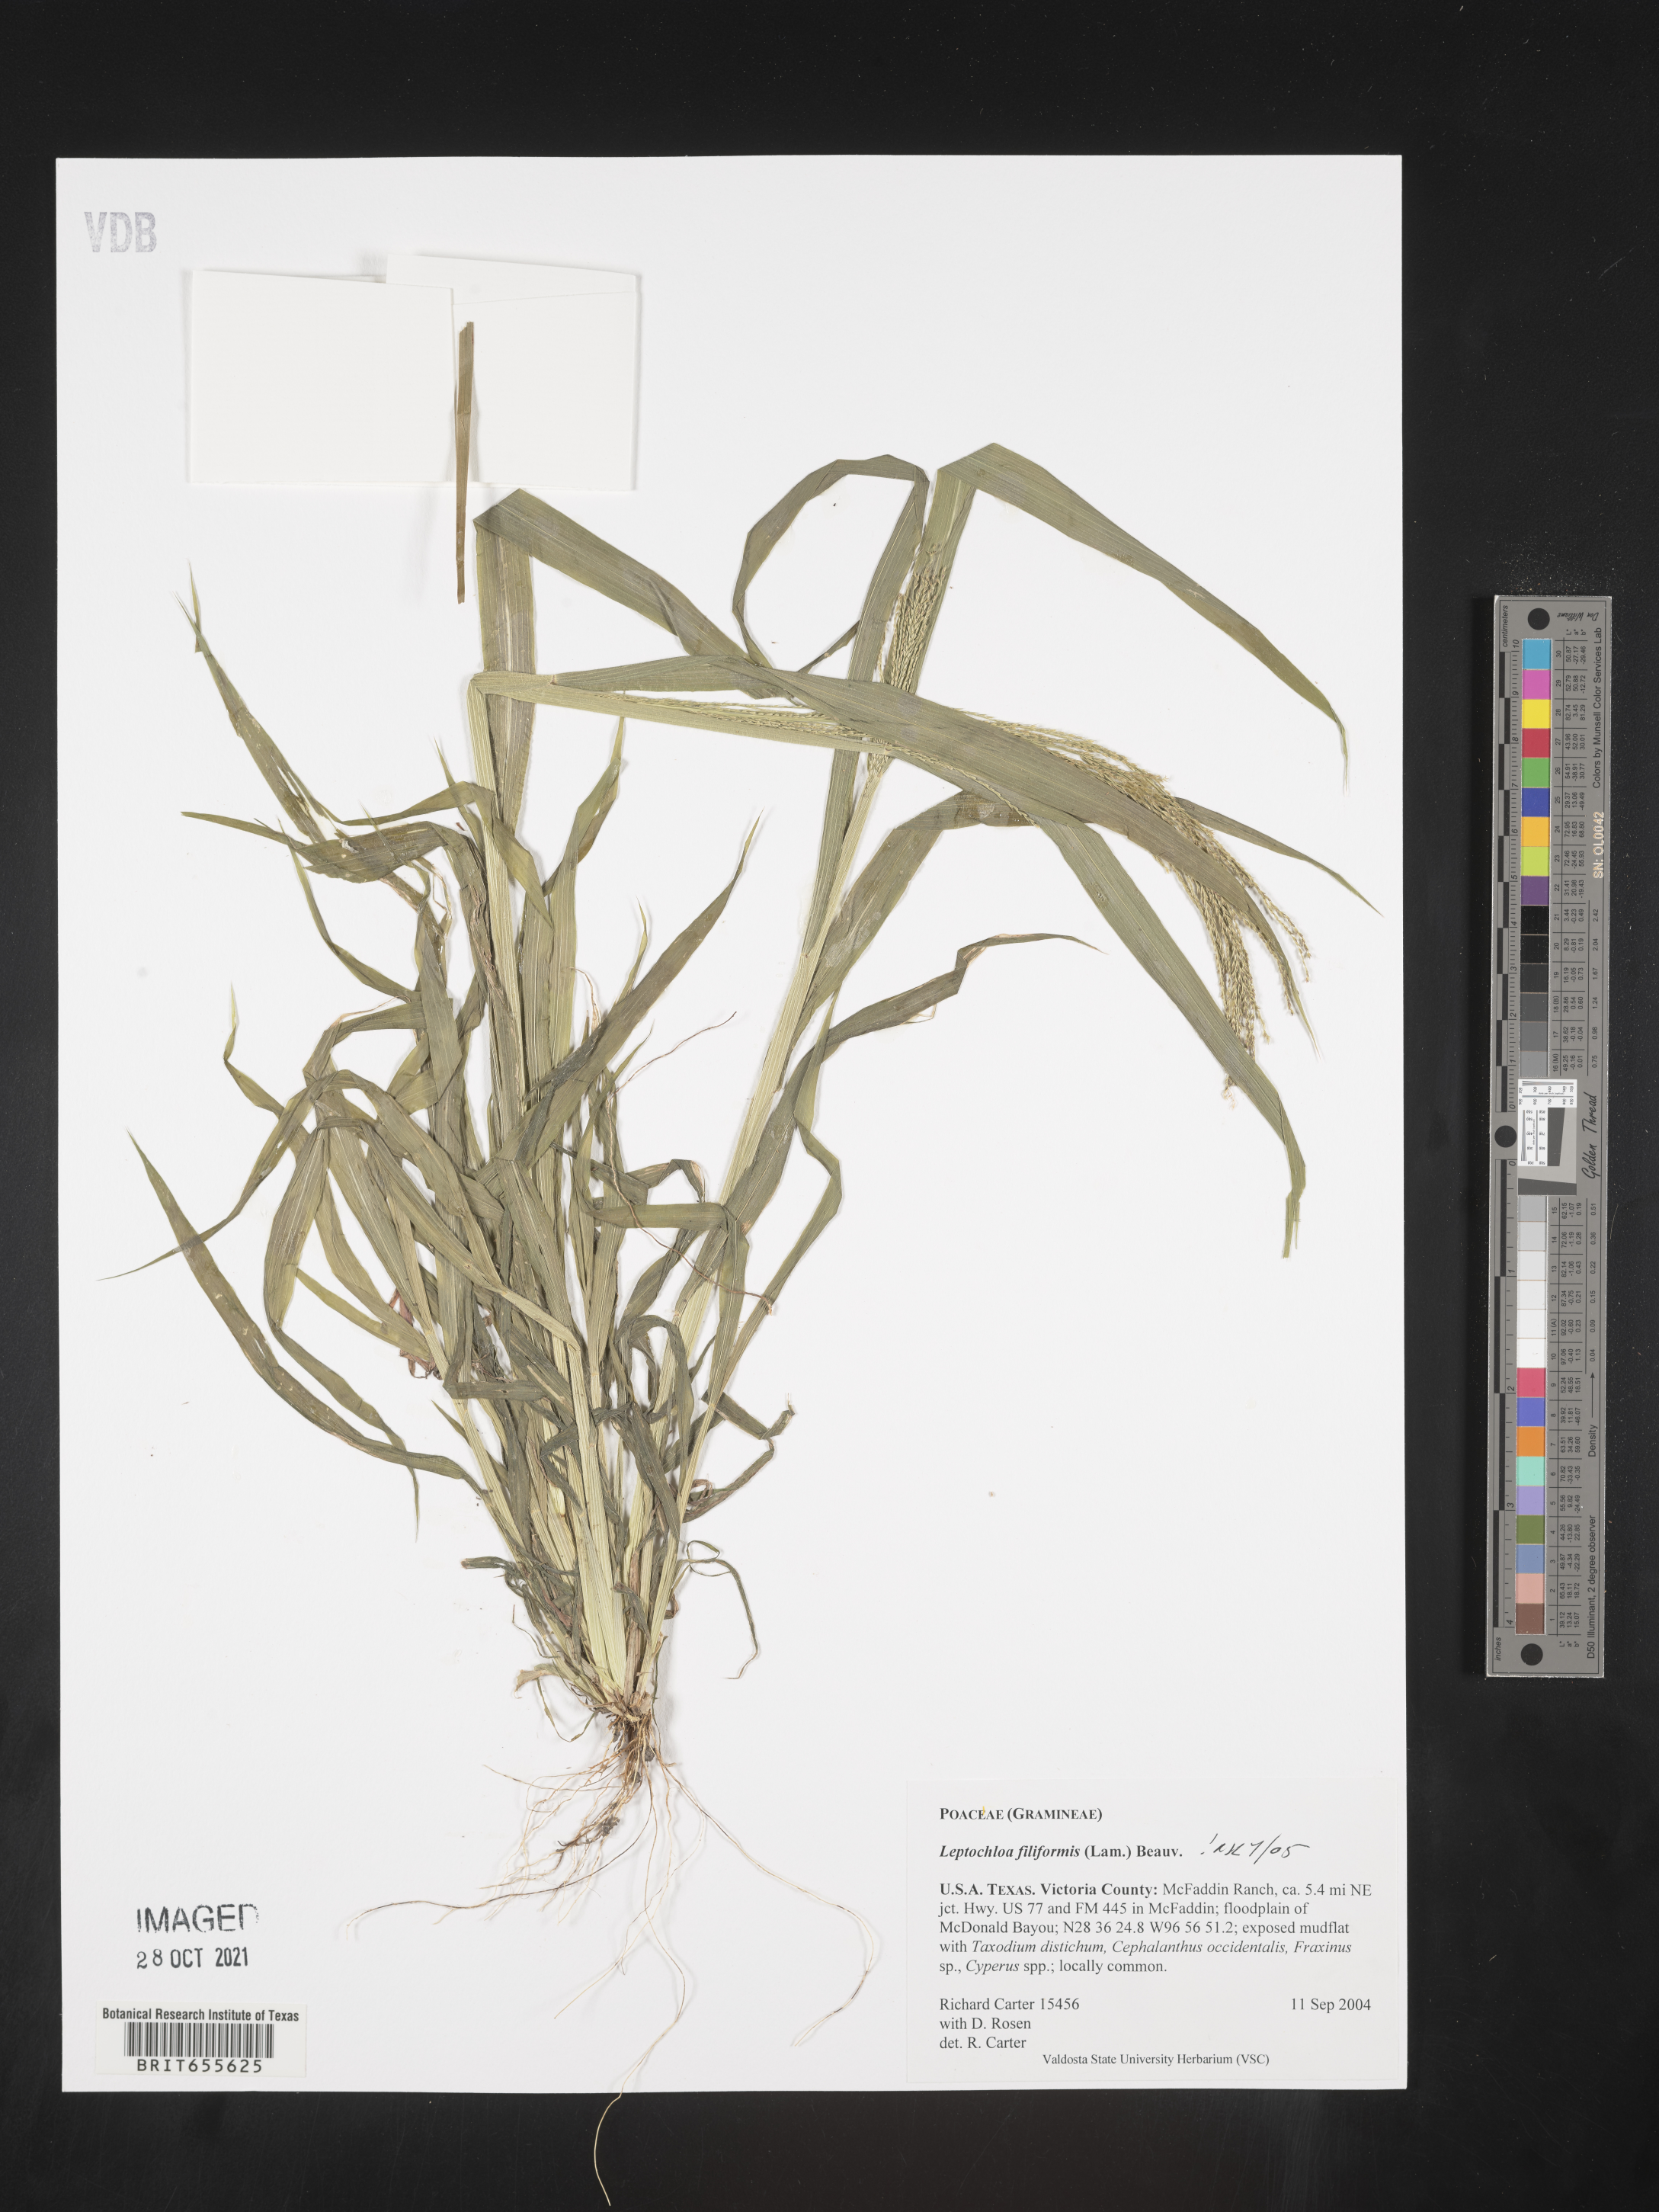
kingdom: Plantae
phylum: Tracheophyta
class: Liliopsida
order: Poales
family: Poaceae
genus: Leptochloa
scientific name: Leptochloa mucronata
